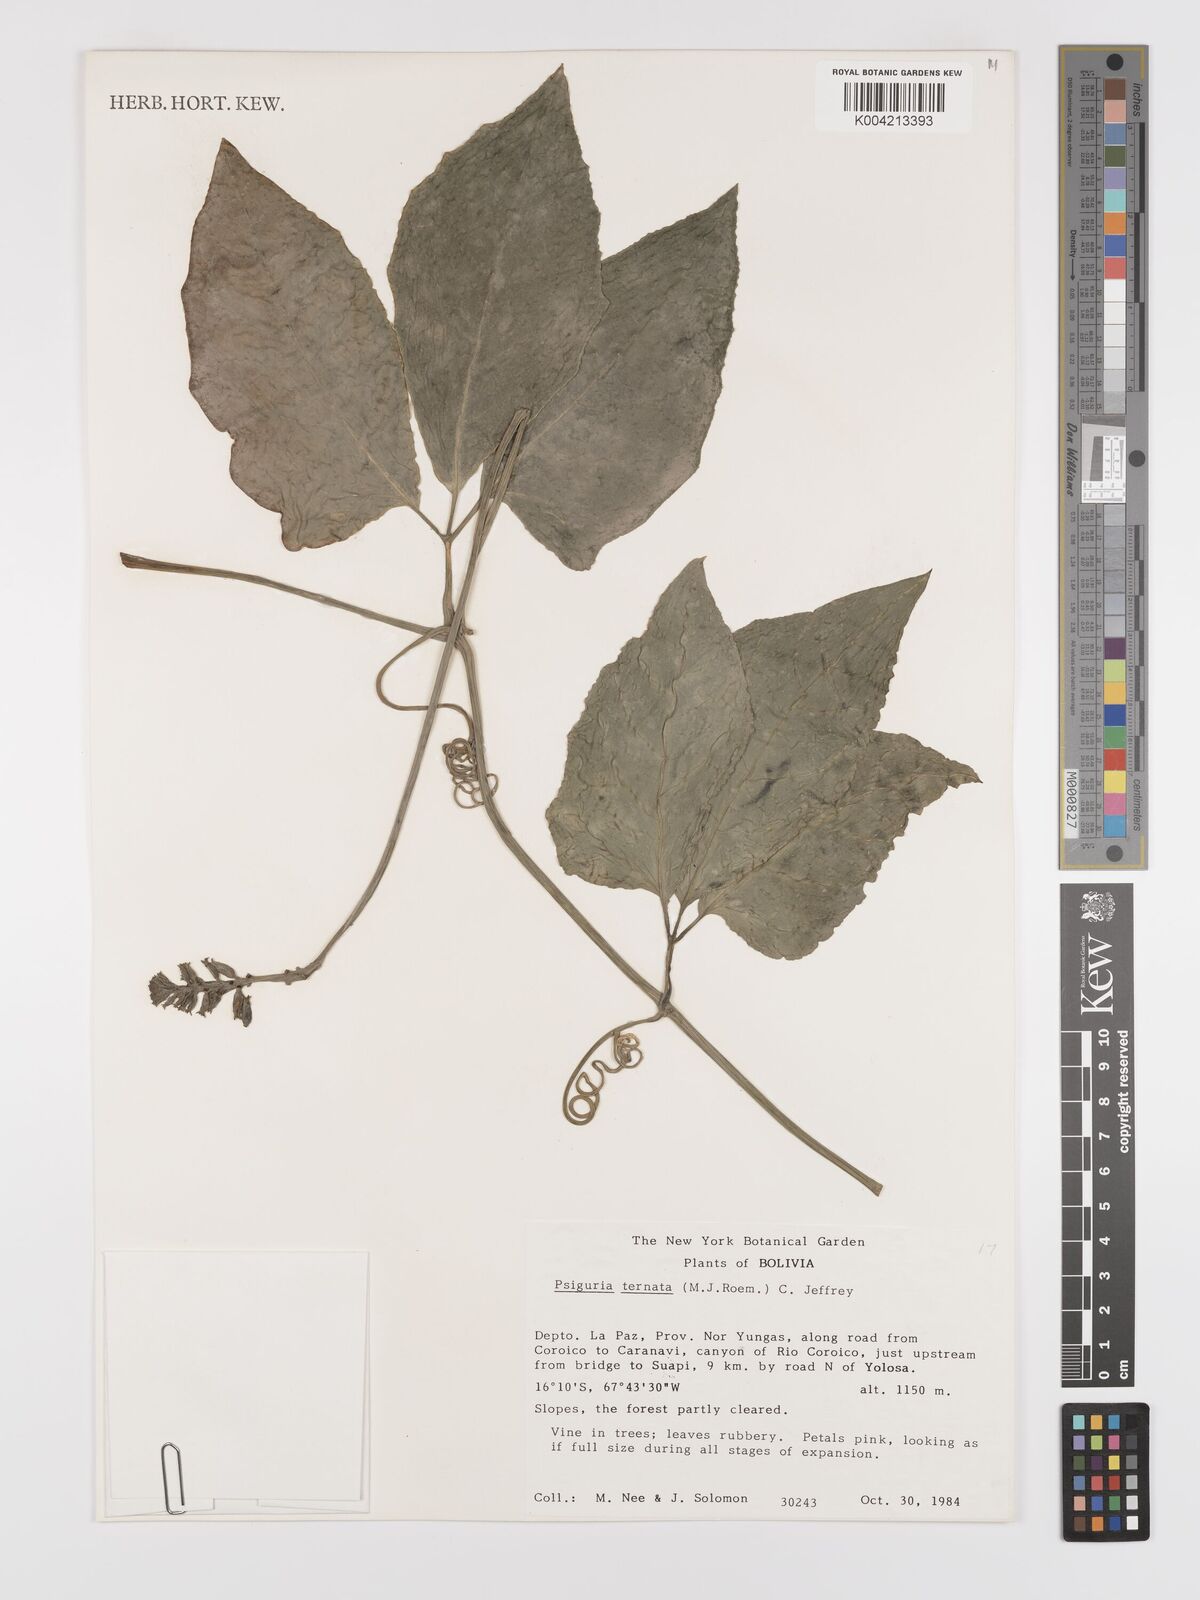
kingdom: Plantae
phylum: Tracheophyta
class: Magnoliopsida
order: Cucurbitales
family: Cucurbitaceae
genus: Psiguria
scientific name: Psiguria ternata
